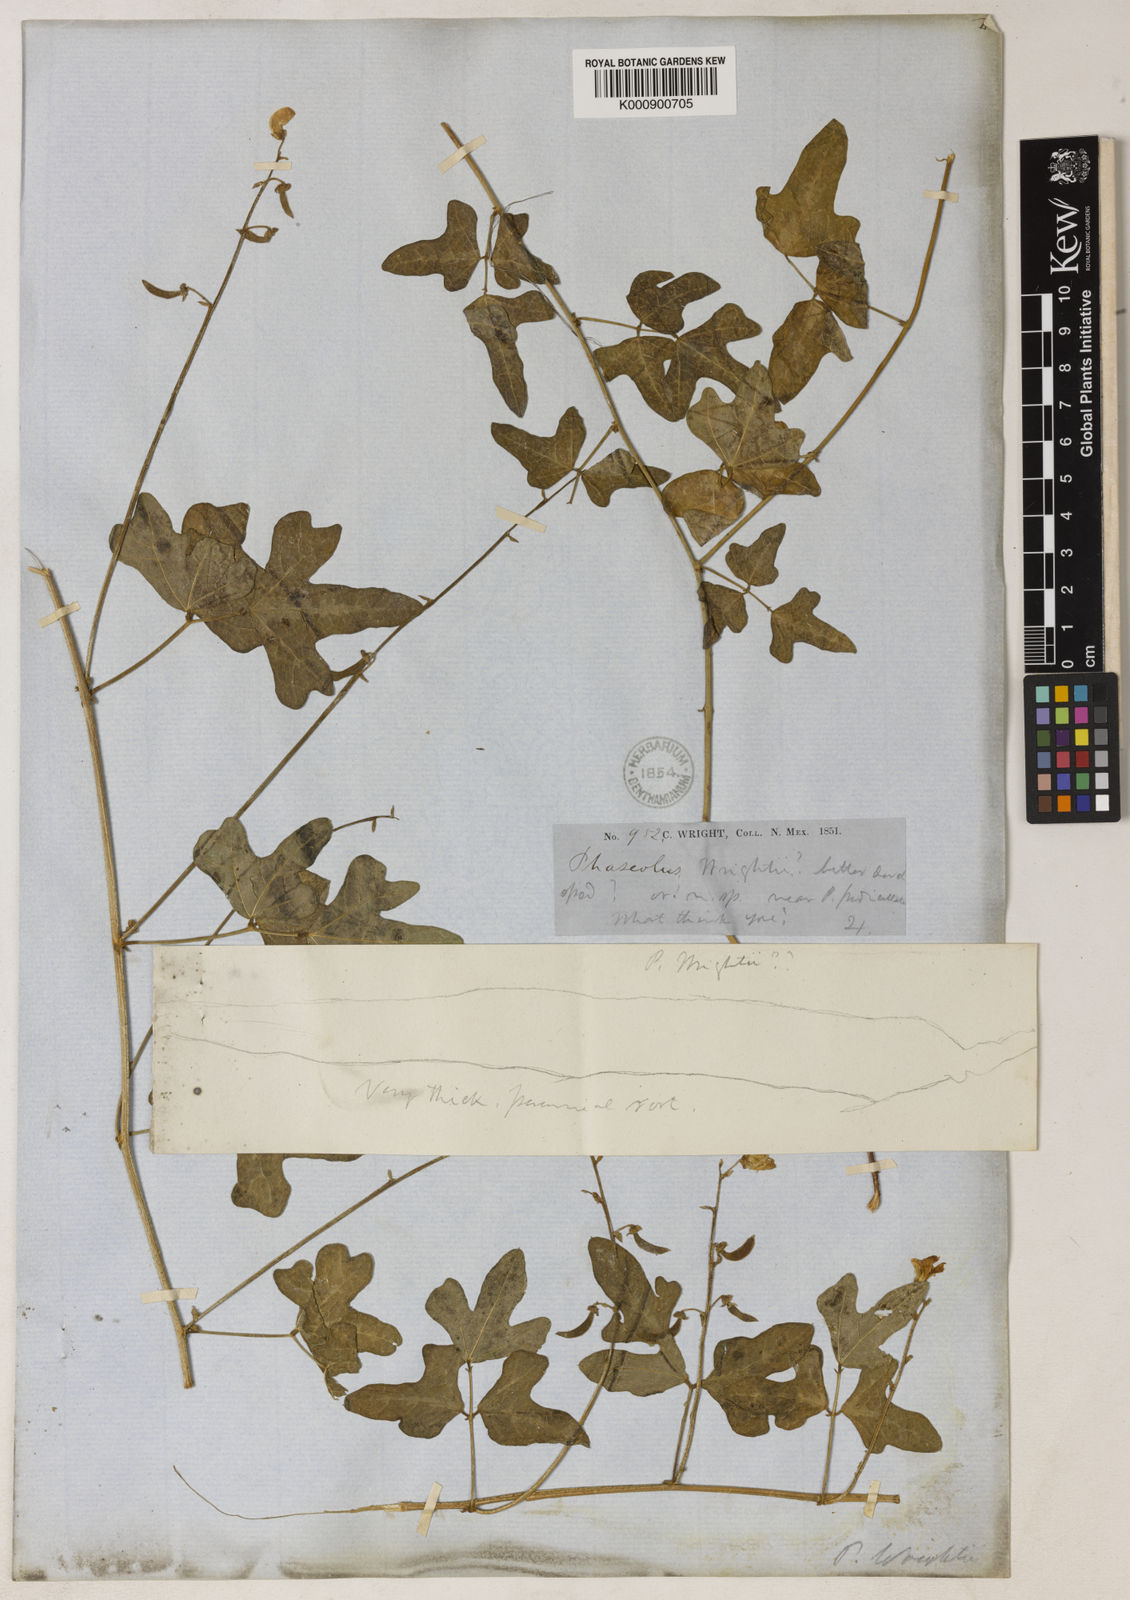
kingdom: Plantae
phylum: Tracheophyta
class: Magnoliopsida
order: Fabales
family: Fabaceae
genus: Phaseolus
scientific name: Phaseolus filiformis
